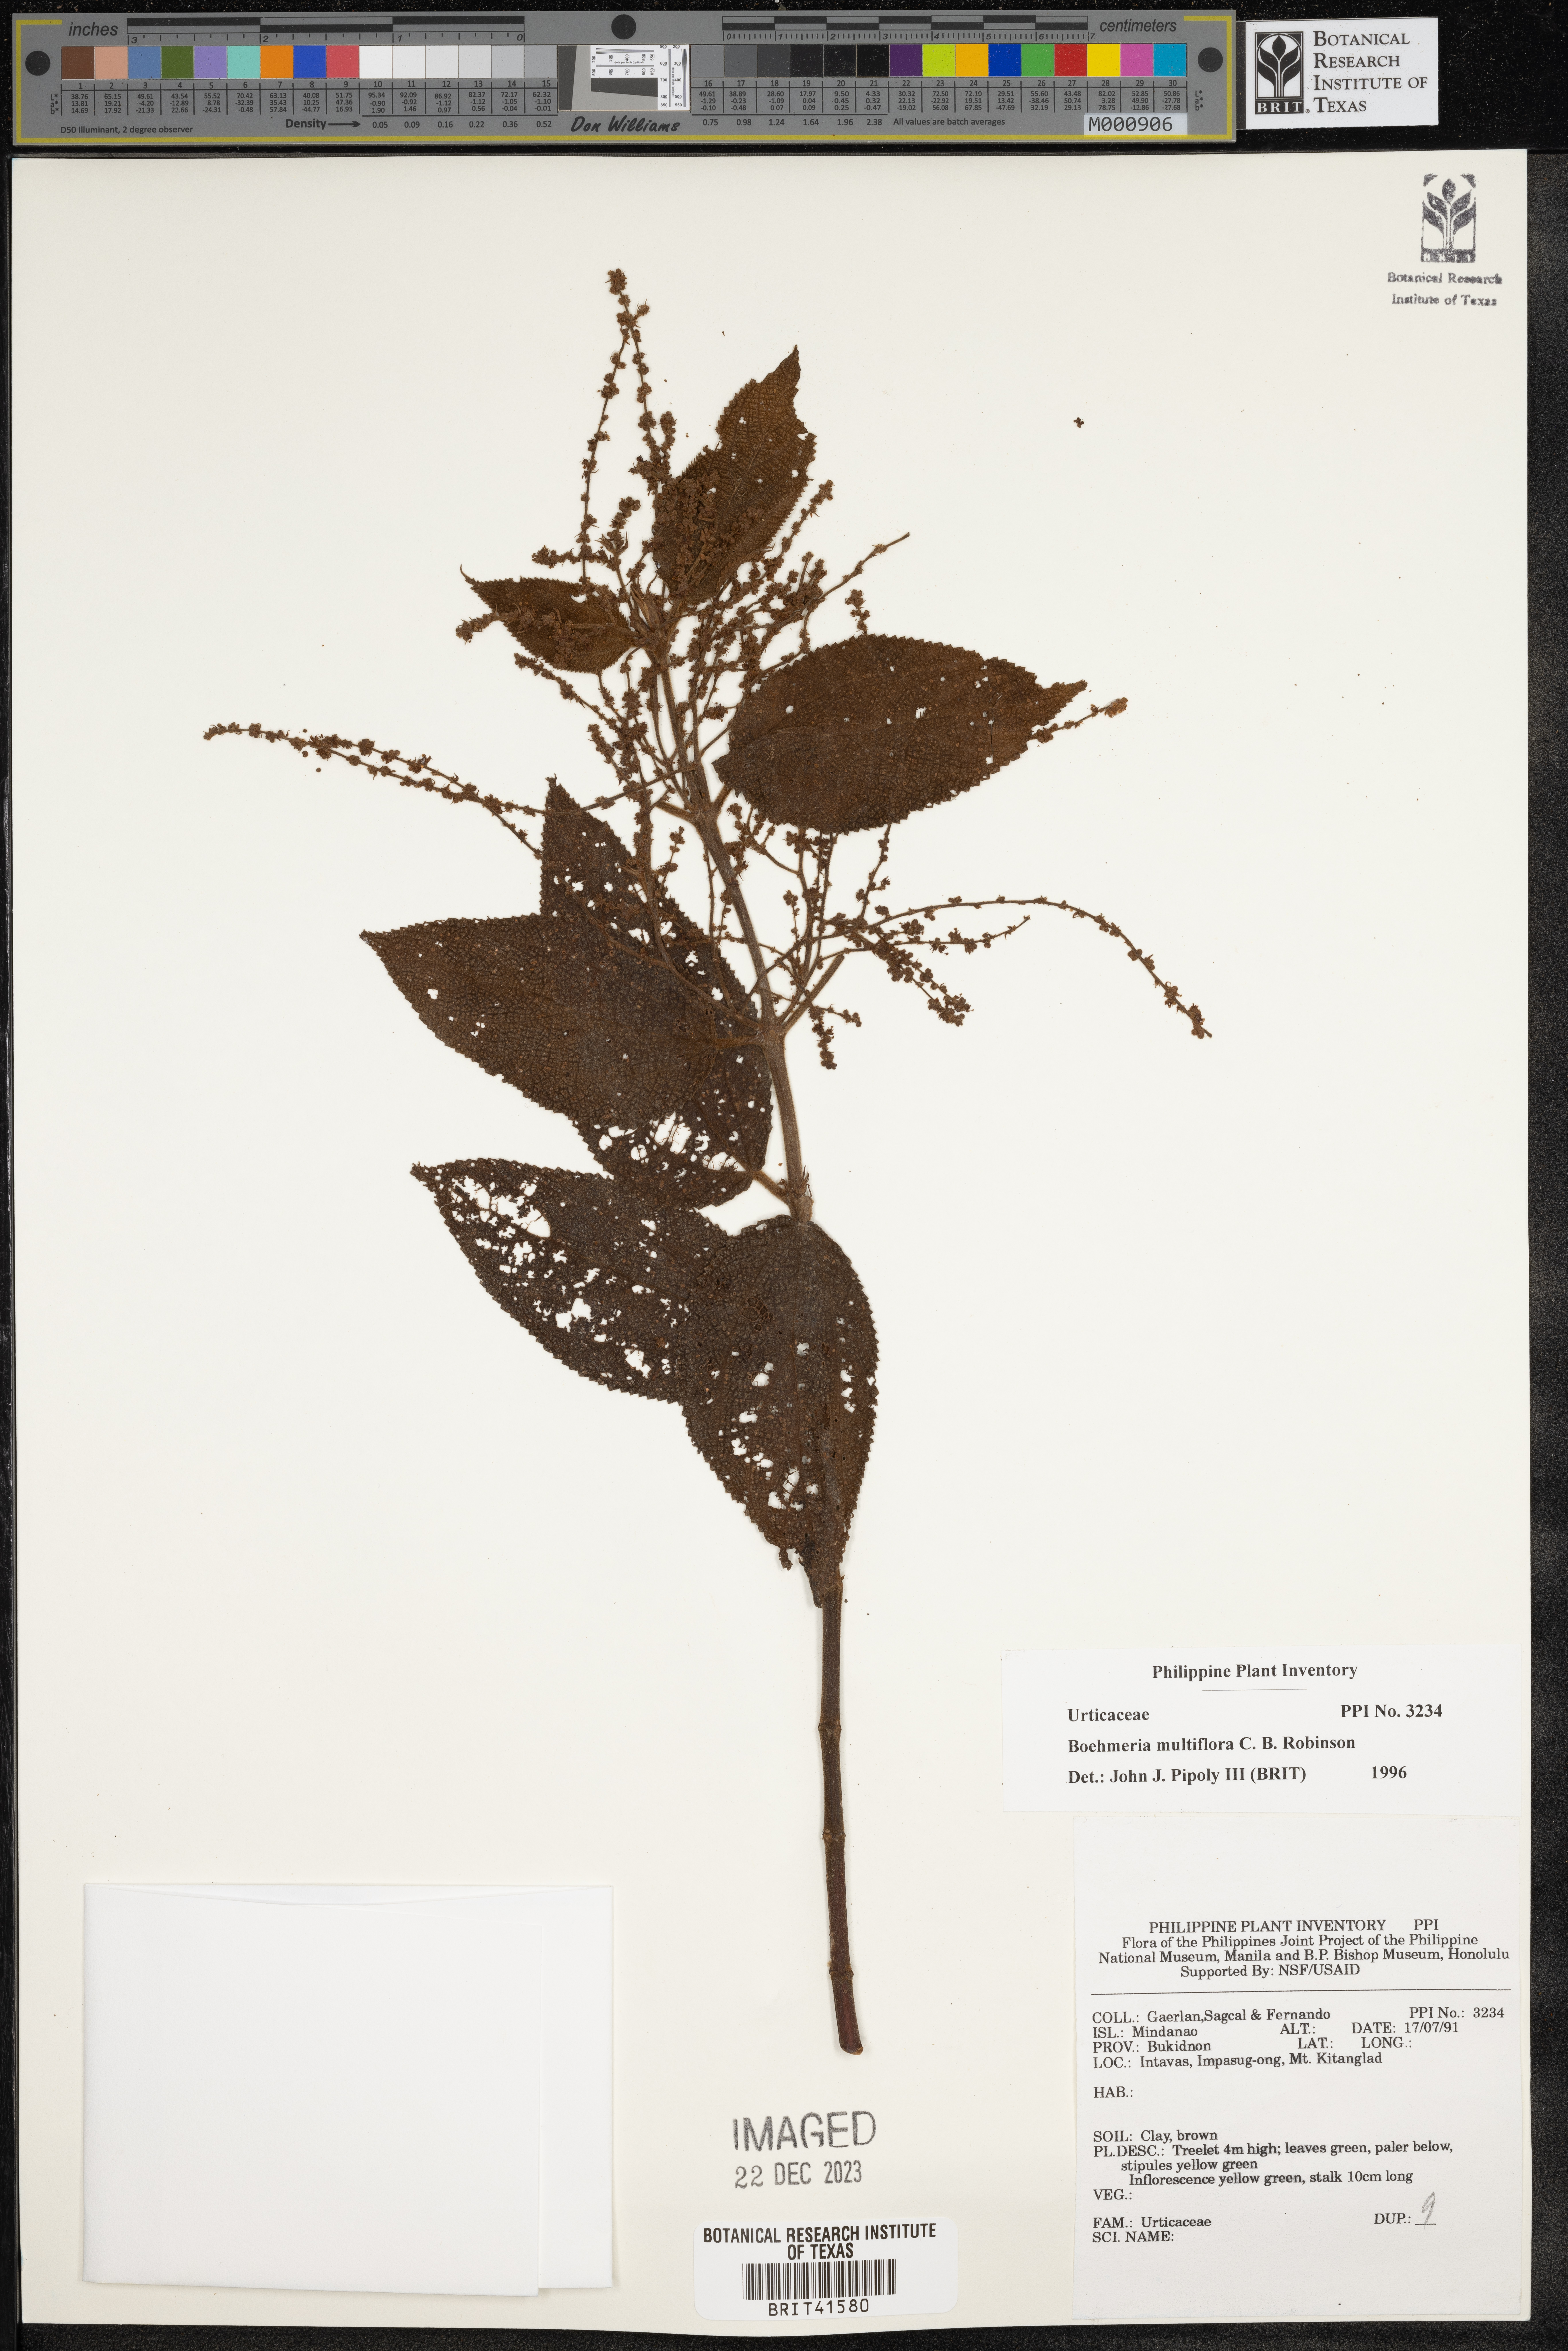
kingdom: Plantae
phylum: Tracheophyta
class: Magnoliopsida
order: Rosales
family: Urticaceae
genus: Boehmeria
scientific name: Boehmeria multiflora
